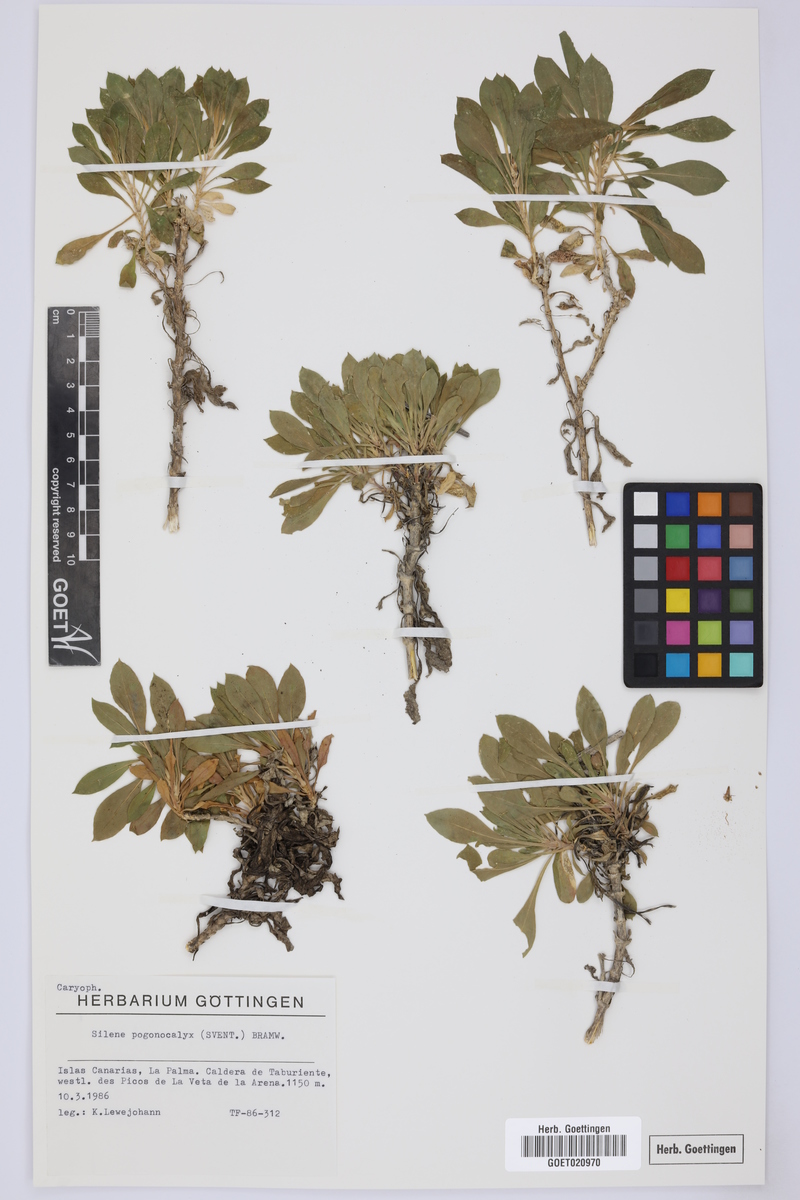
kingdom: Plantae
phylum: Tracheophyta
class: Magnoliopsida
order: Caryophyllales
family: Caryophyllaceae
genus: Silene
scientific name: Silene pogonocalyx
